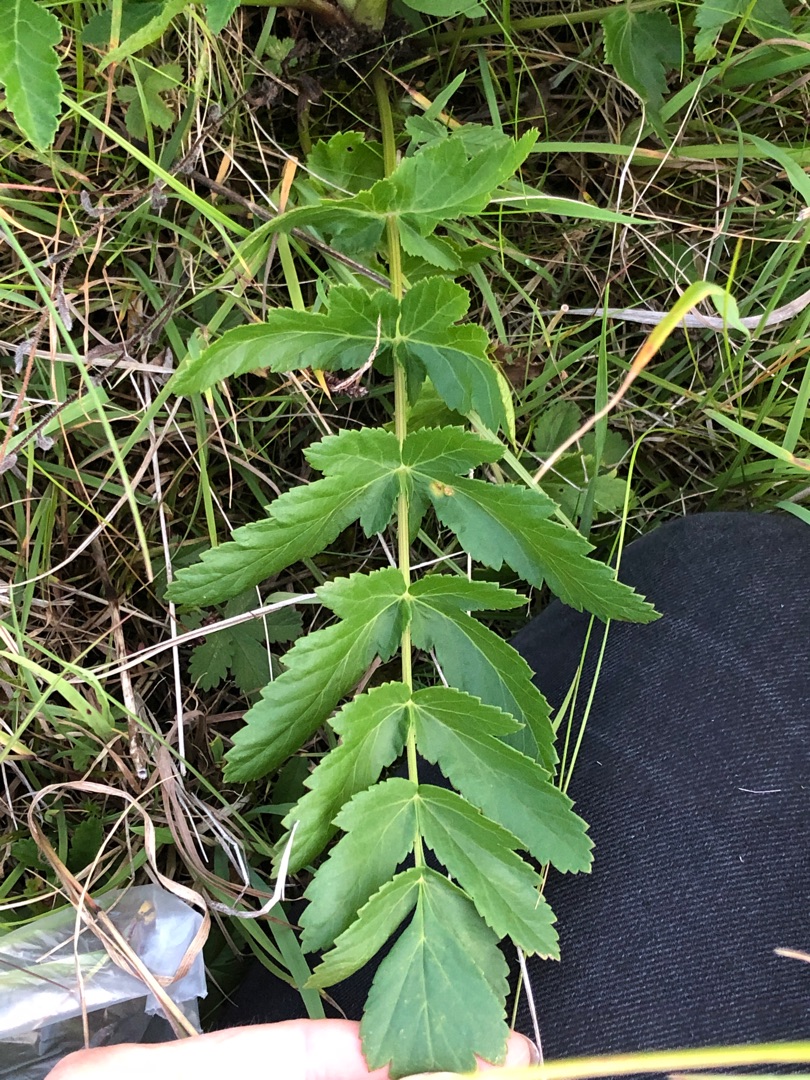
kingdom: Plantae
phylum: Tracheophyta
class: Magnoliopsida
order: Apiales
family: Apiaceae
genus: Pastinaca
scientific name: Pastinaca sativa
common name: Pastinak
